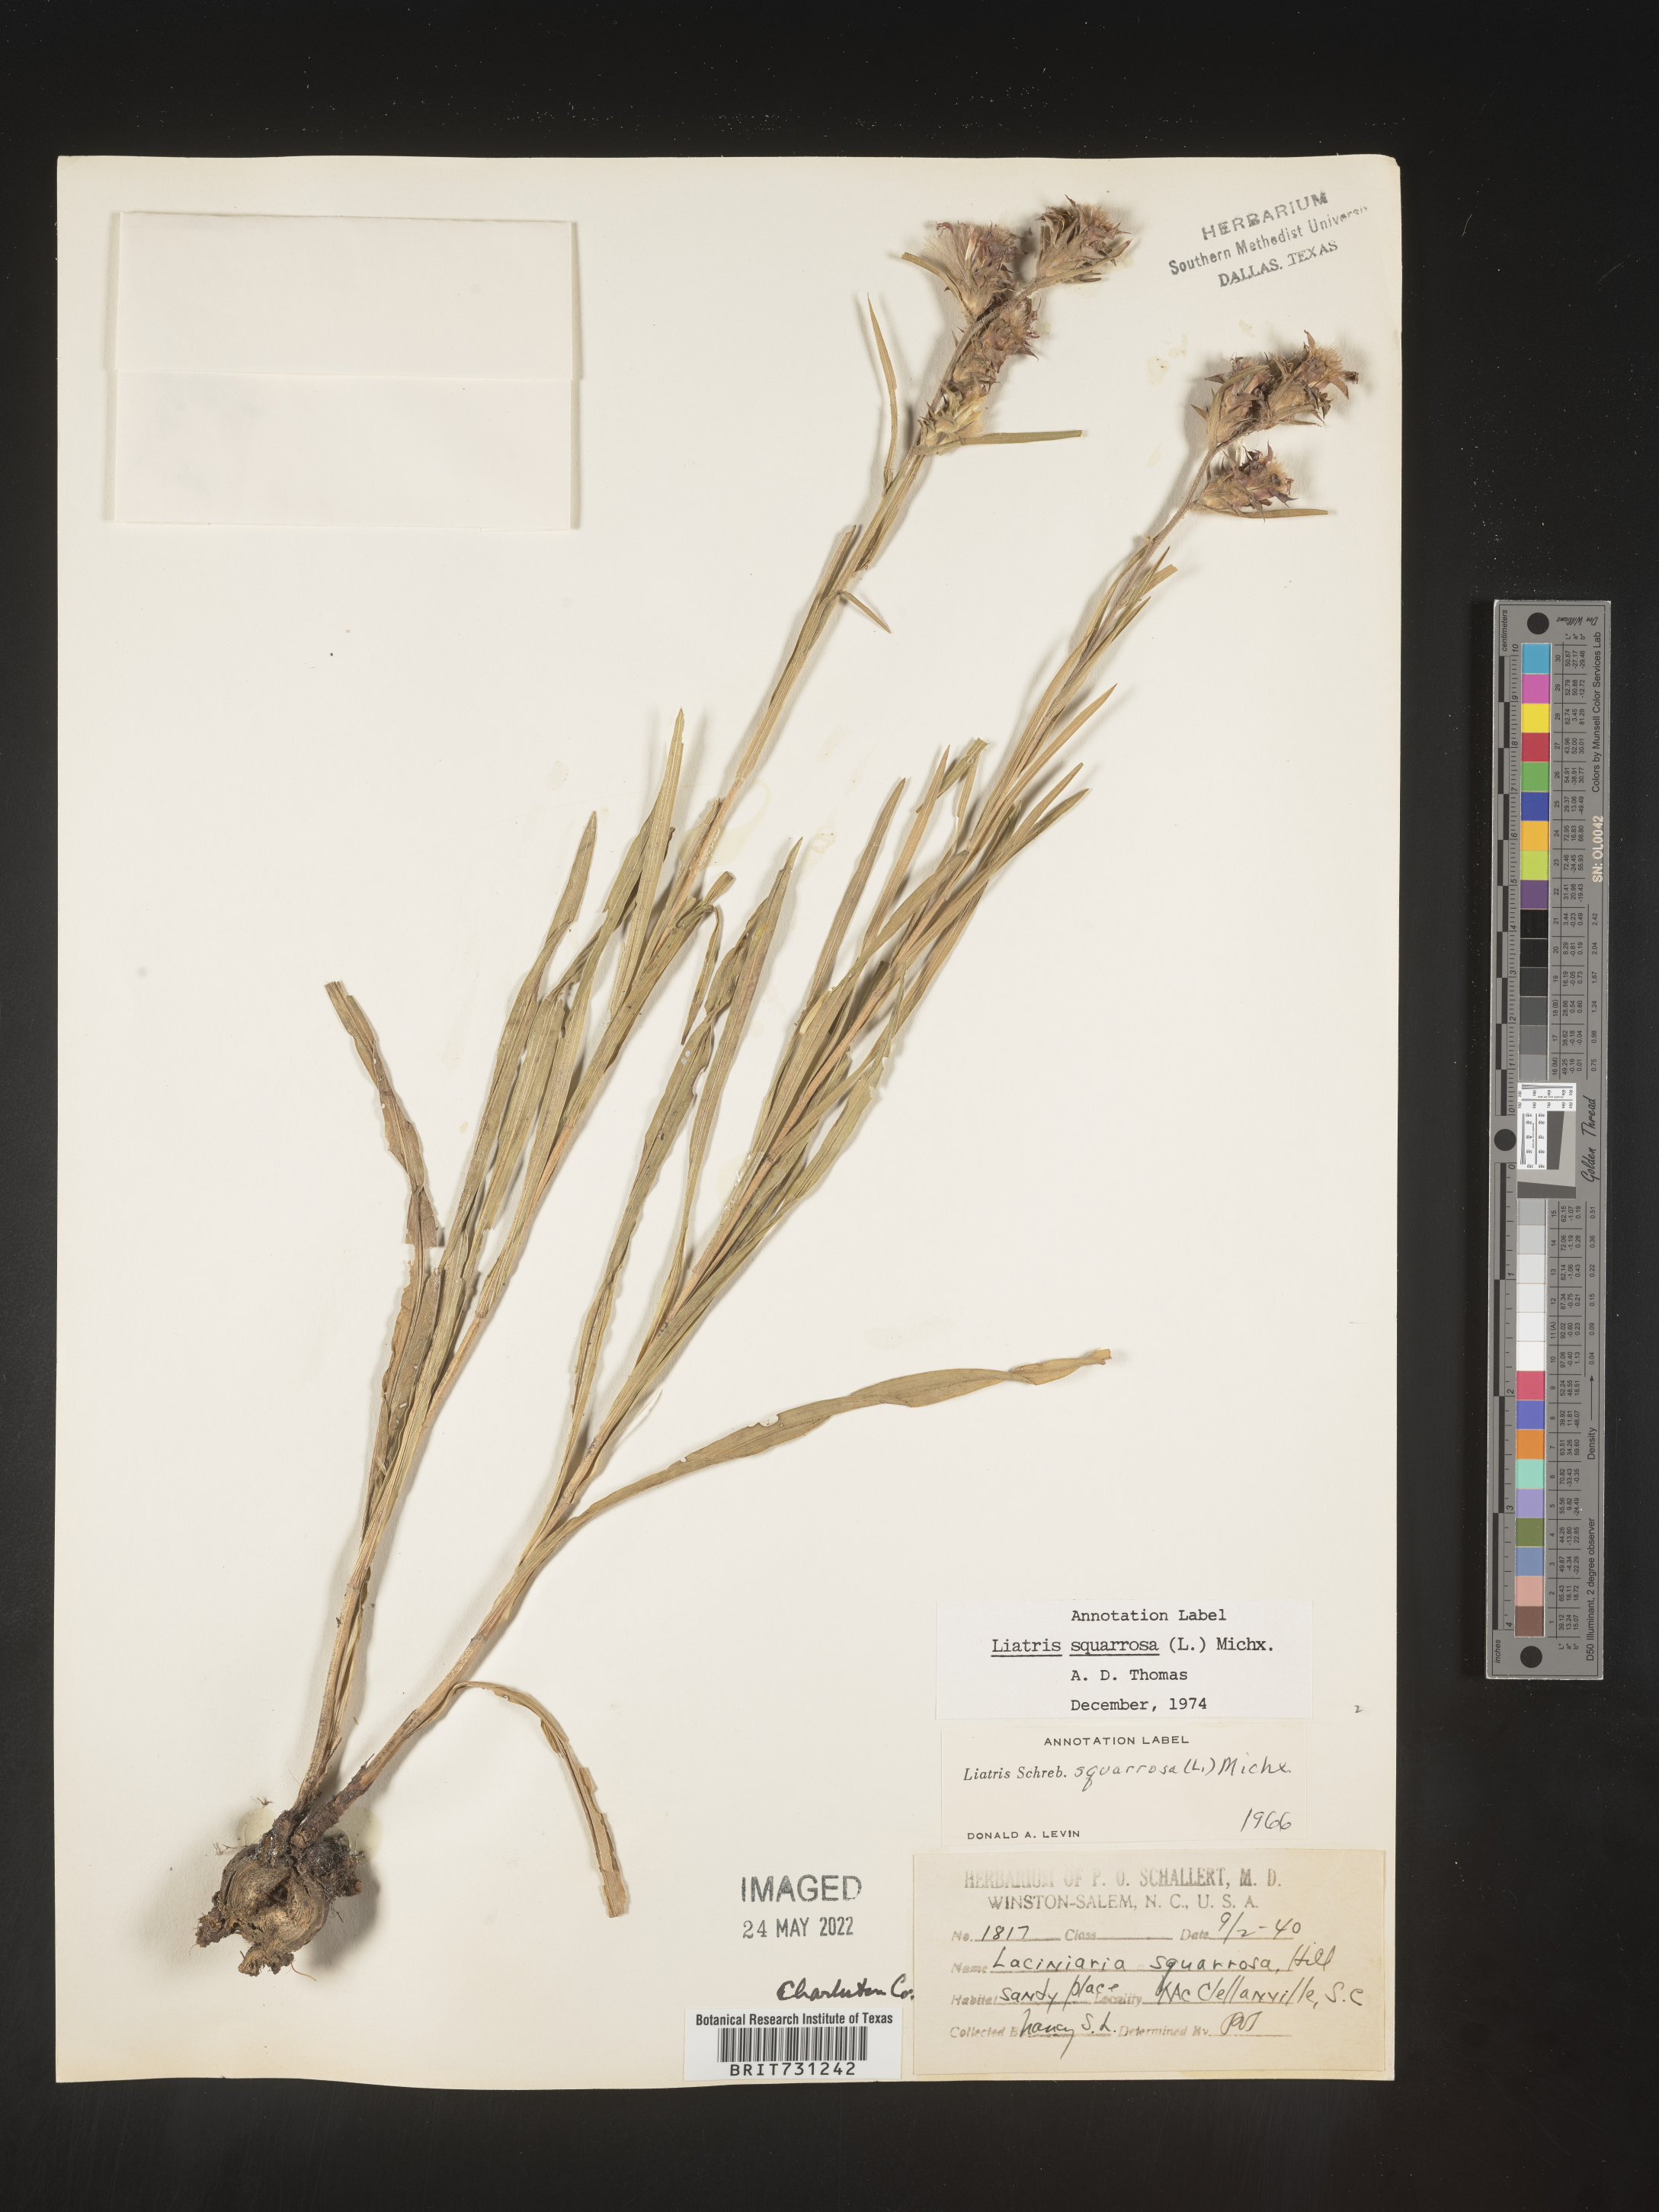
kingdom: Plantae
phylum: Tracheophyta
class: Magnoliopsida
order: Asterales
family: Asteraceae
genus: Liatris
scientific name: Liatris squarrosa
